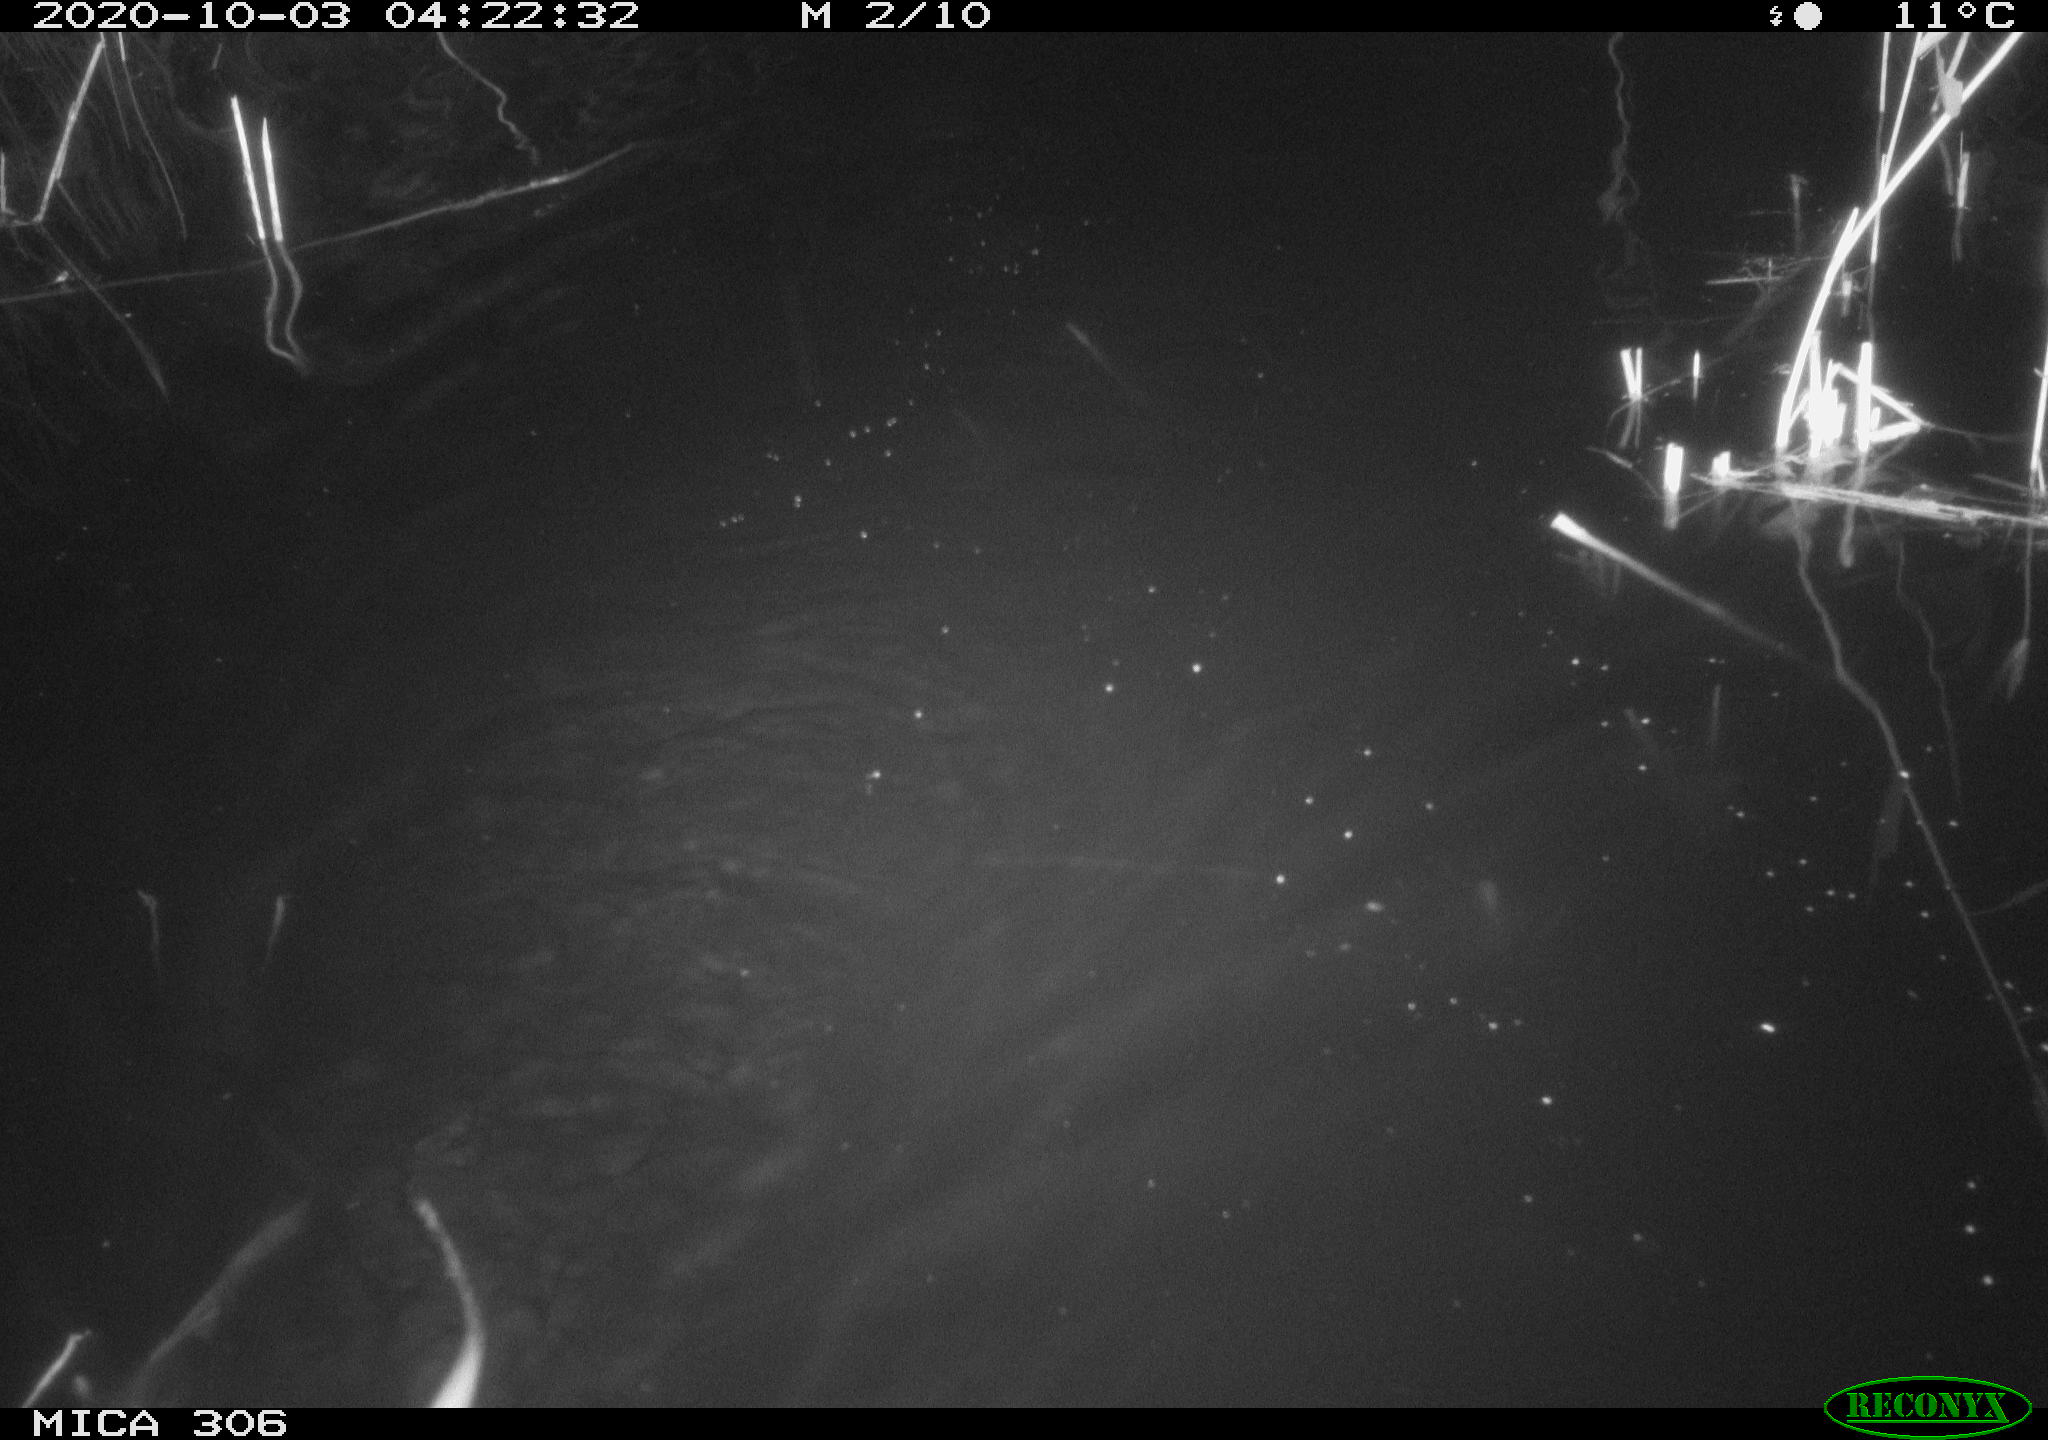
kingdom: Animalia
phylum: Chordata
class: Mammalia
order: Rodentia
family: Cricetidae
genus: Ondatra
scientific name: Ondatra zibethicus
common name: Muskrat
